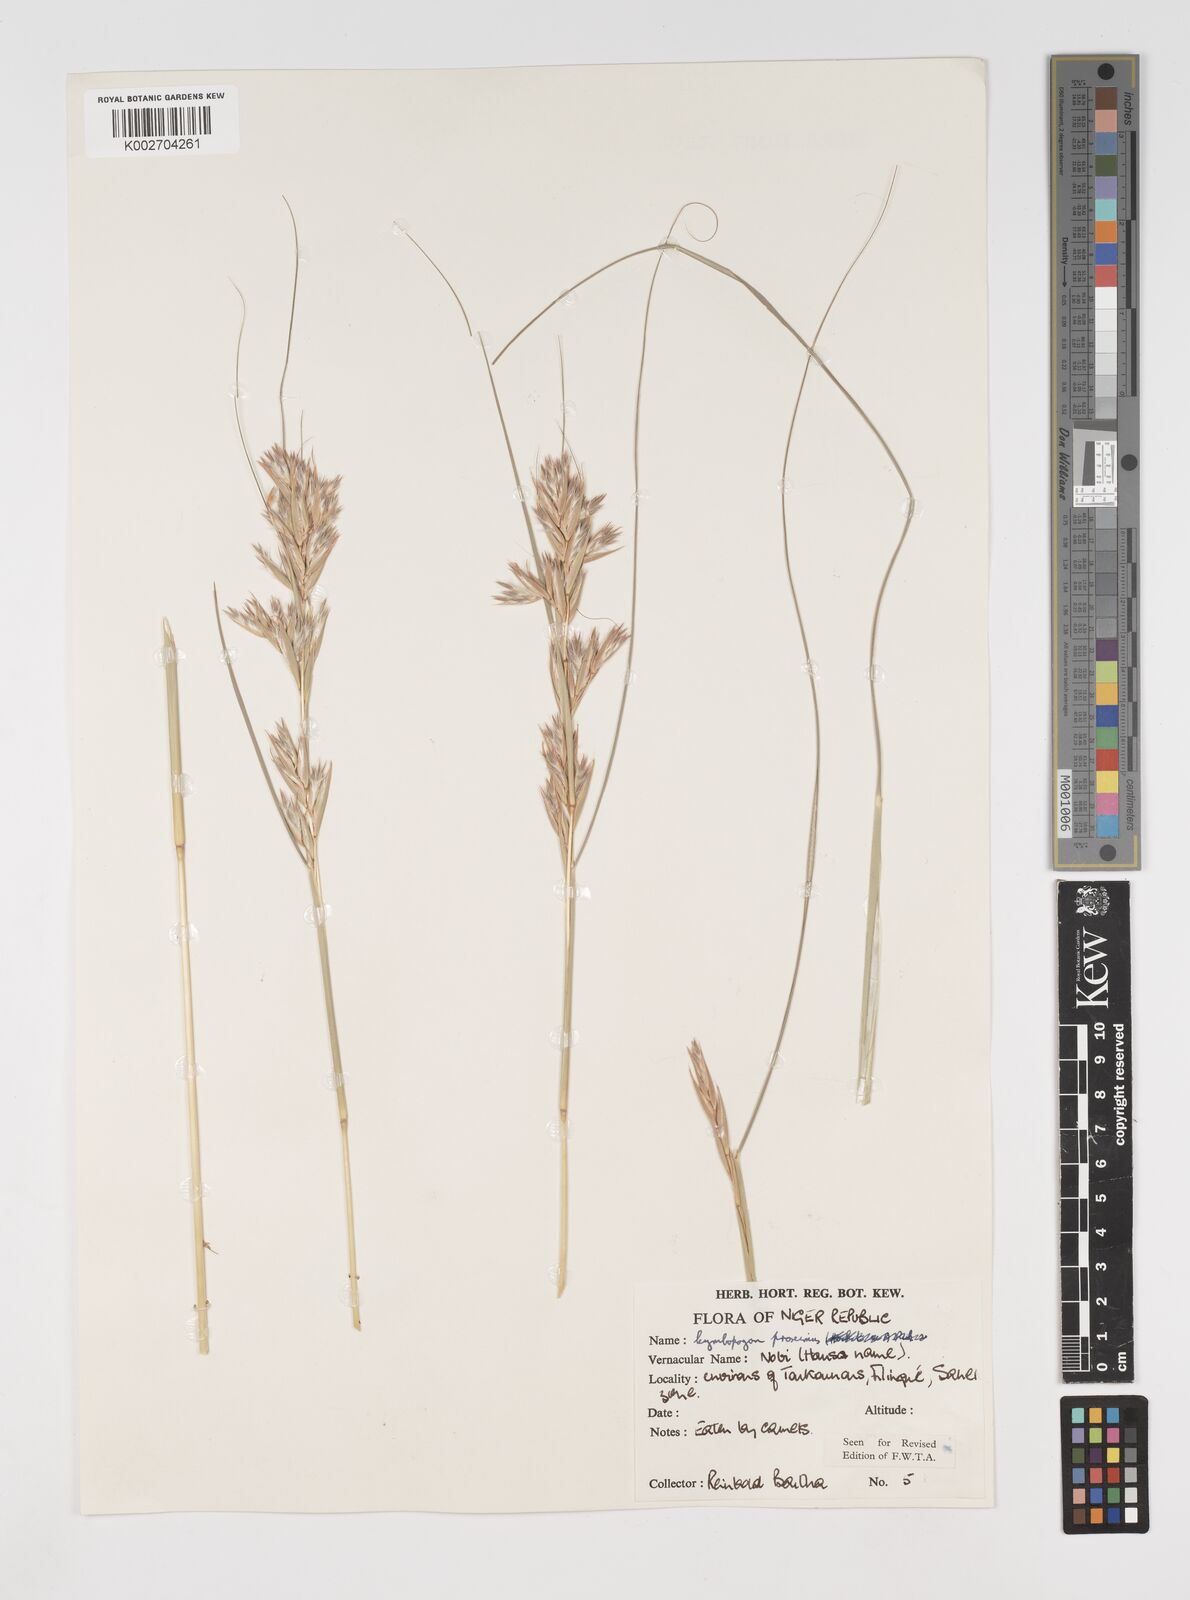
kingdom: Plantae
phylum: Tracheophyta
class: Liliopsida
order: Poales
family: Poaceae
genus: Cymbopogon
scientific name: Cymbopogon schoenanthus
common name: Geranium grass
